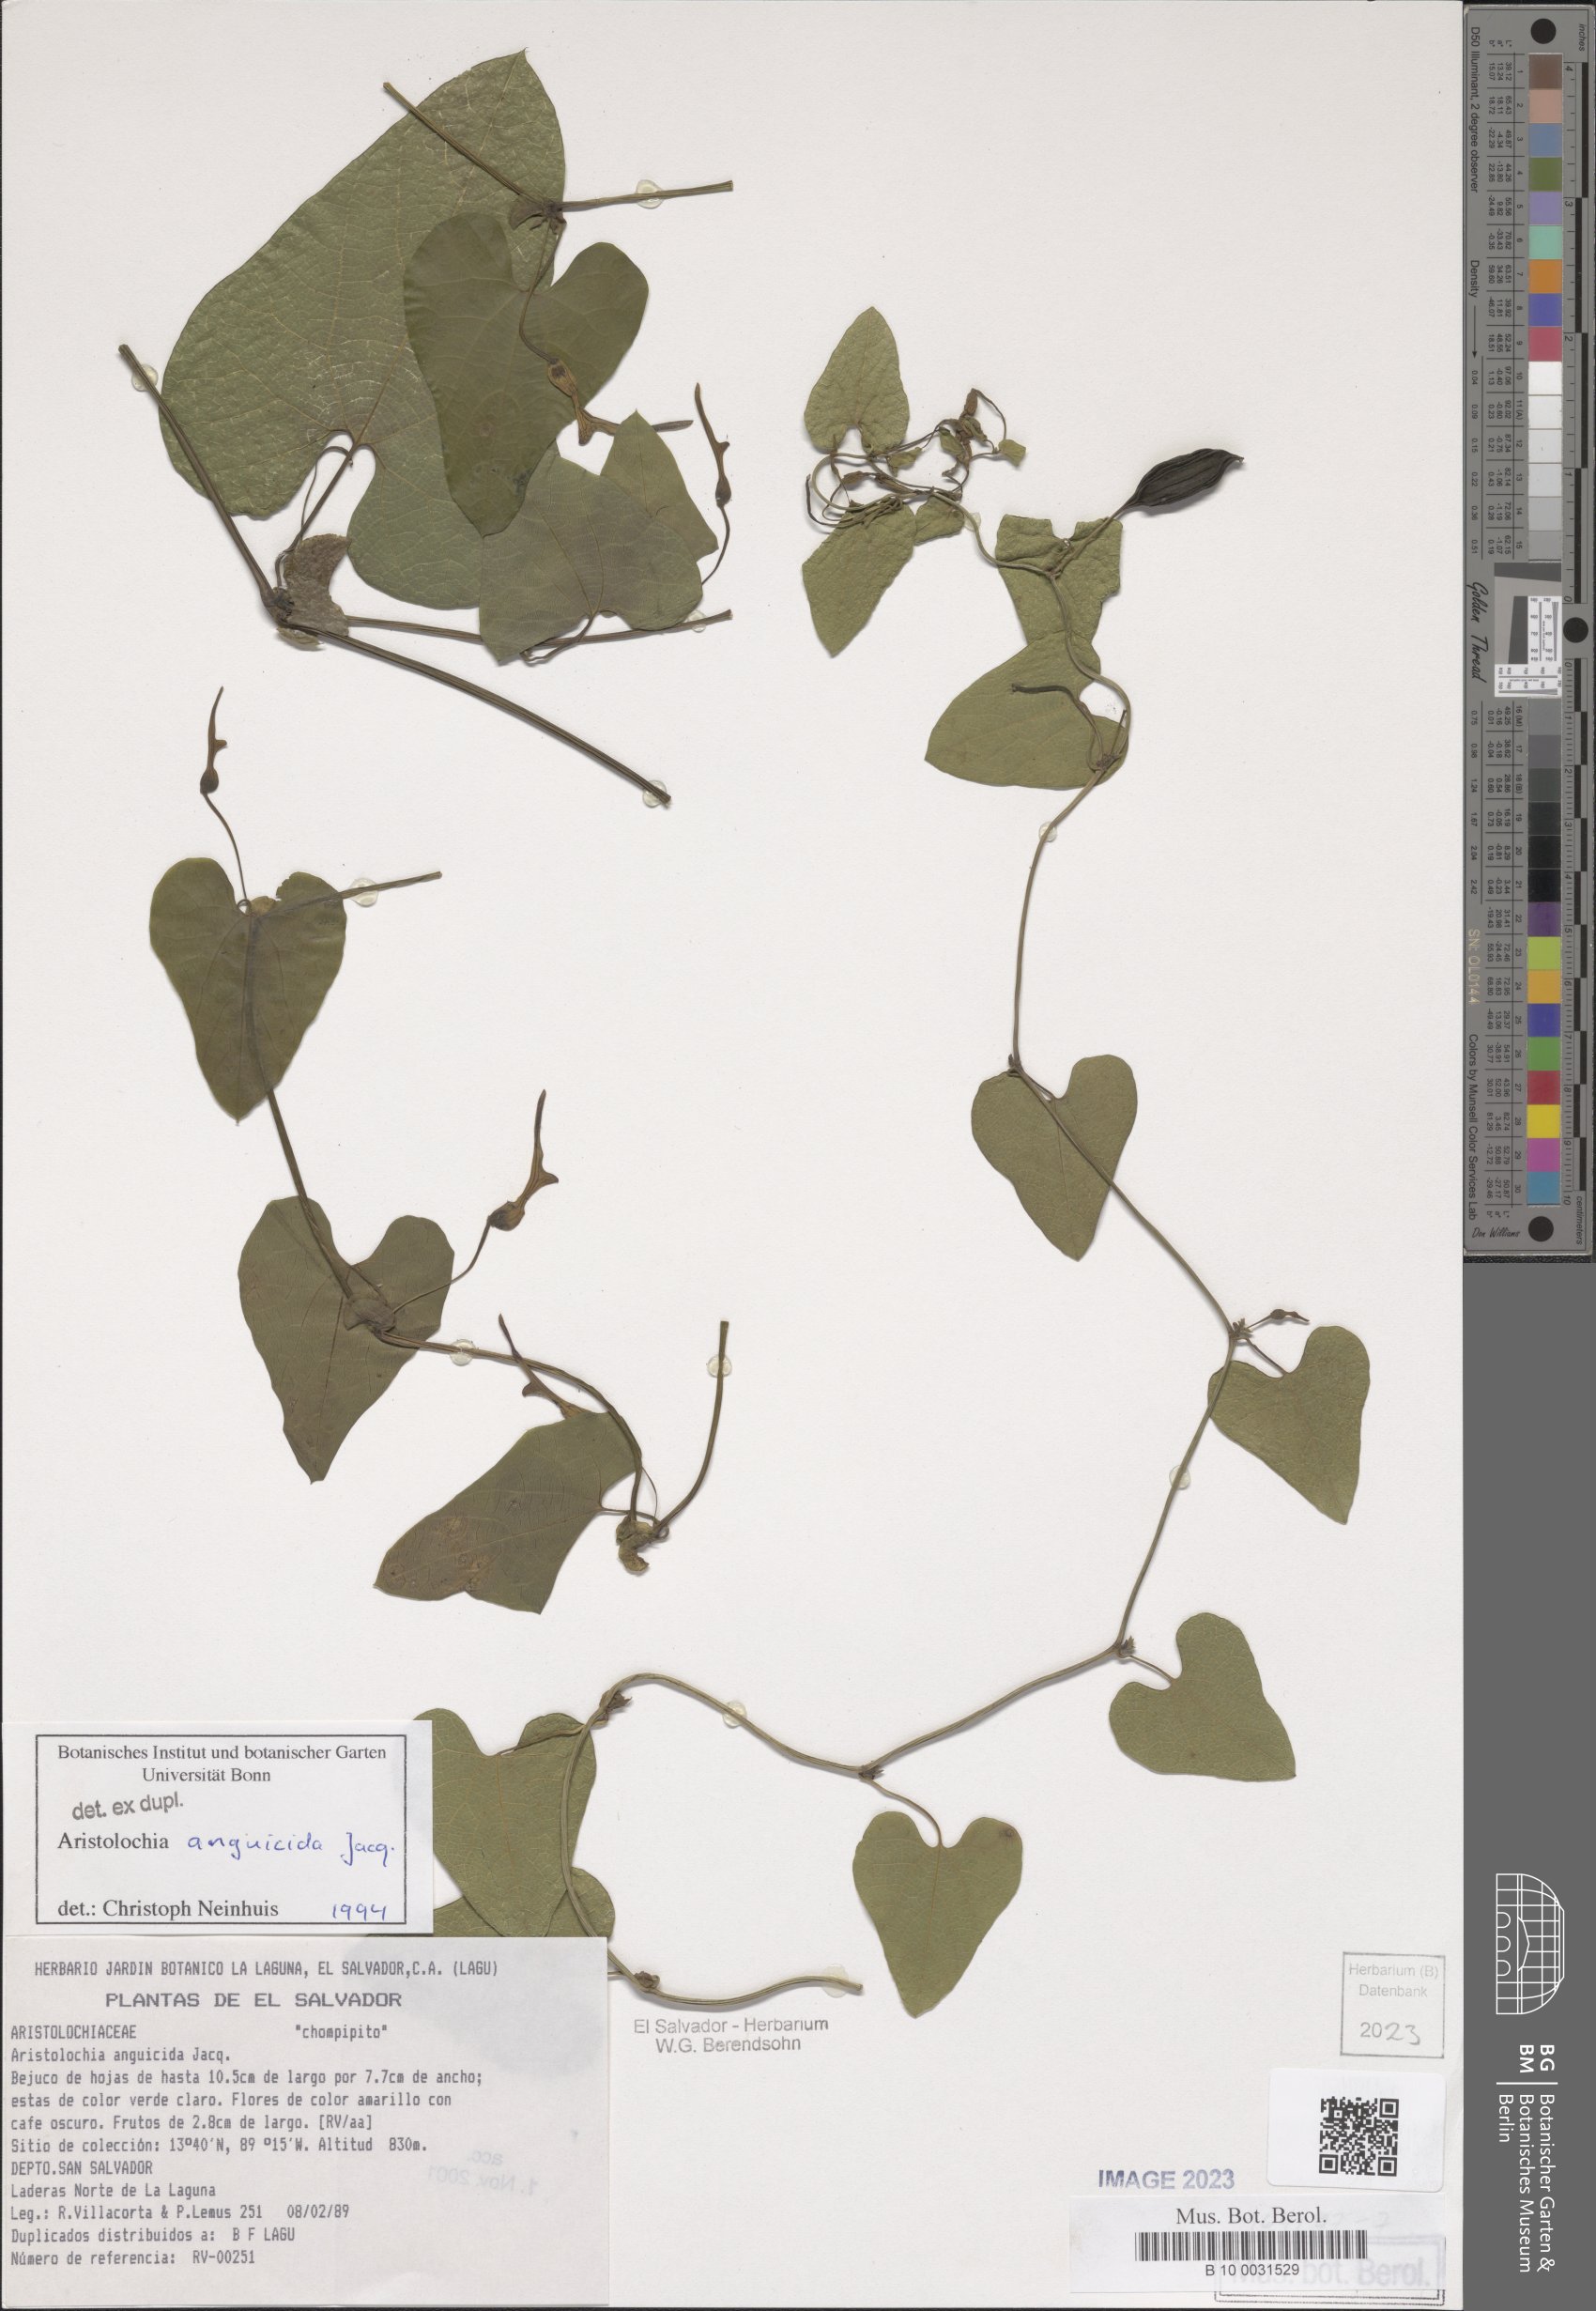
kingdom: Plantae
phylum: Tracheophyta
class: Magnoliopsida
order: Piperales
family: Aristolochiaceae
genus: Aristolochia
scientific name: Aristolochia anguicida
